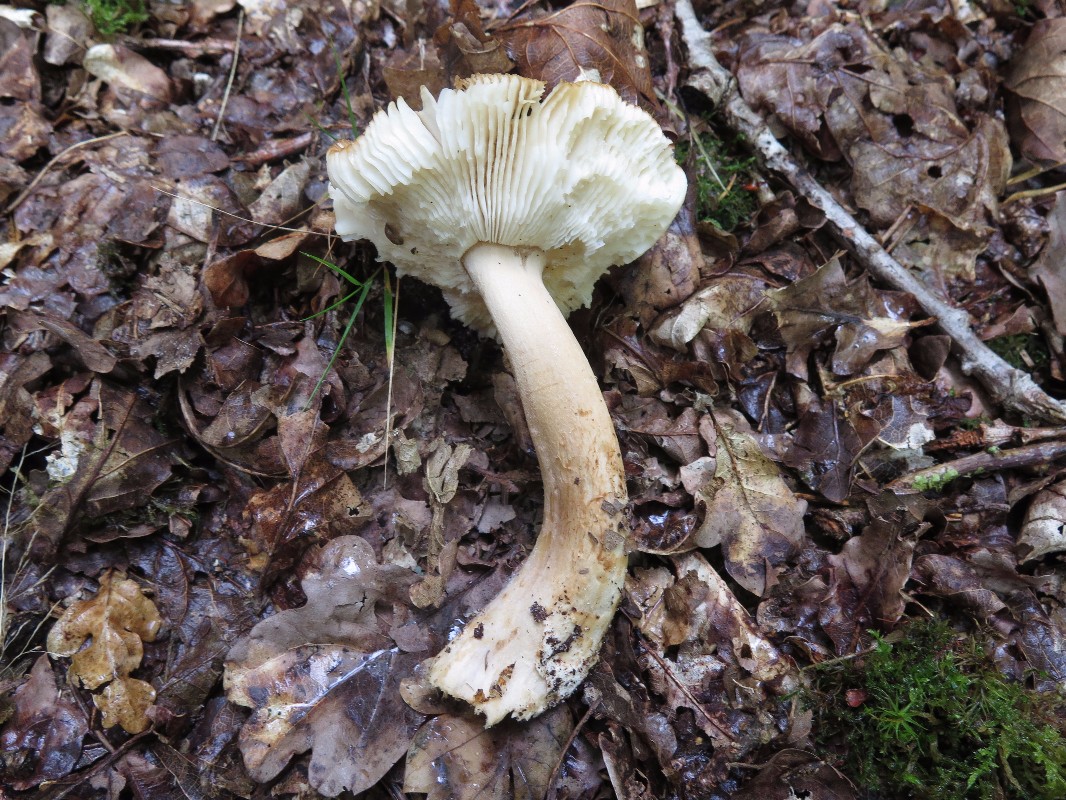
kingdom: Fungi
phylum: Basidiomycota
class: Agaricomycetes
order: Russulales
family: Russulaceae
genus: Russula
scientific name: Russula recondita
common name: mild kam-skørhat
